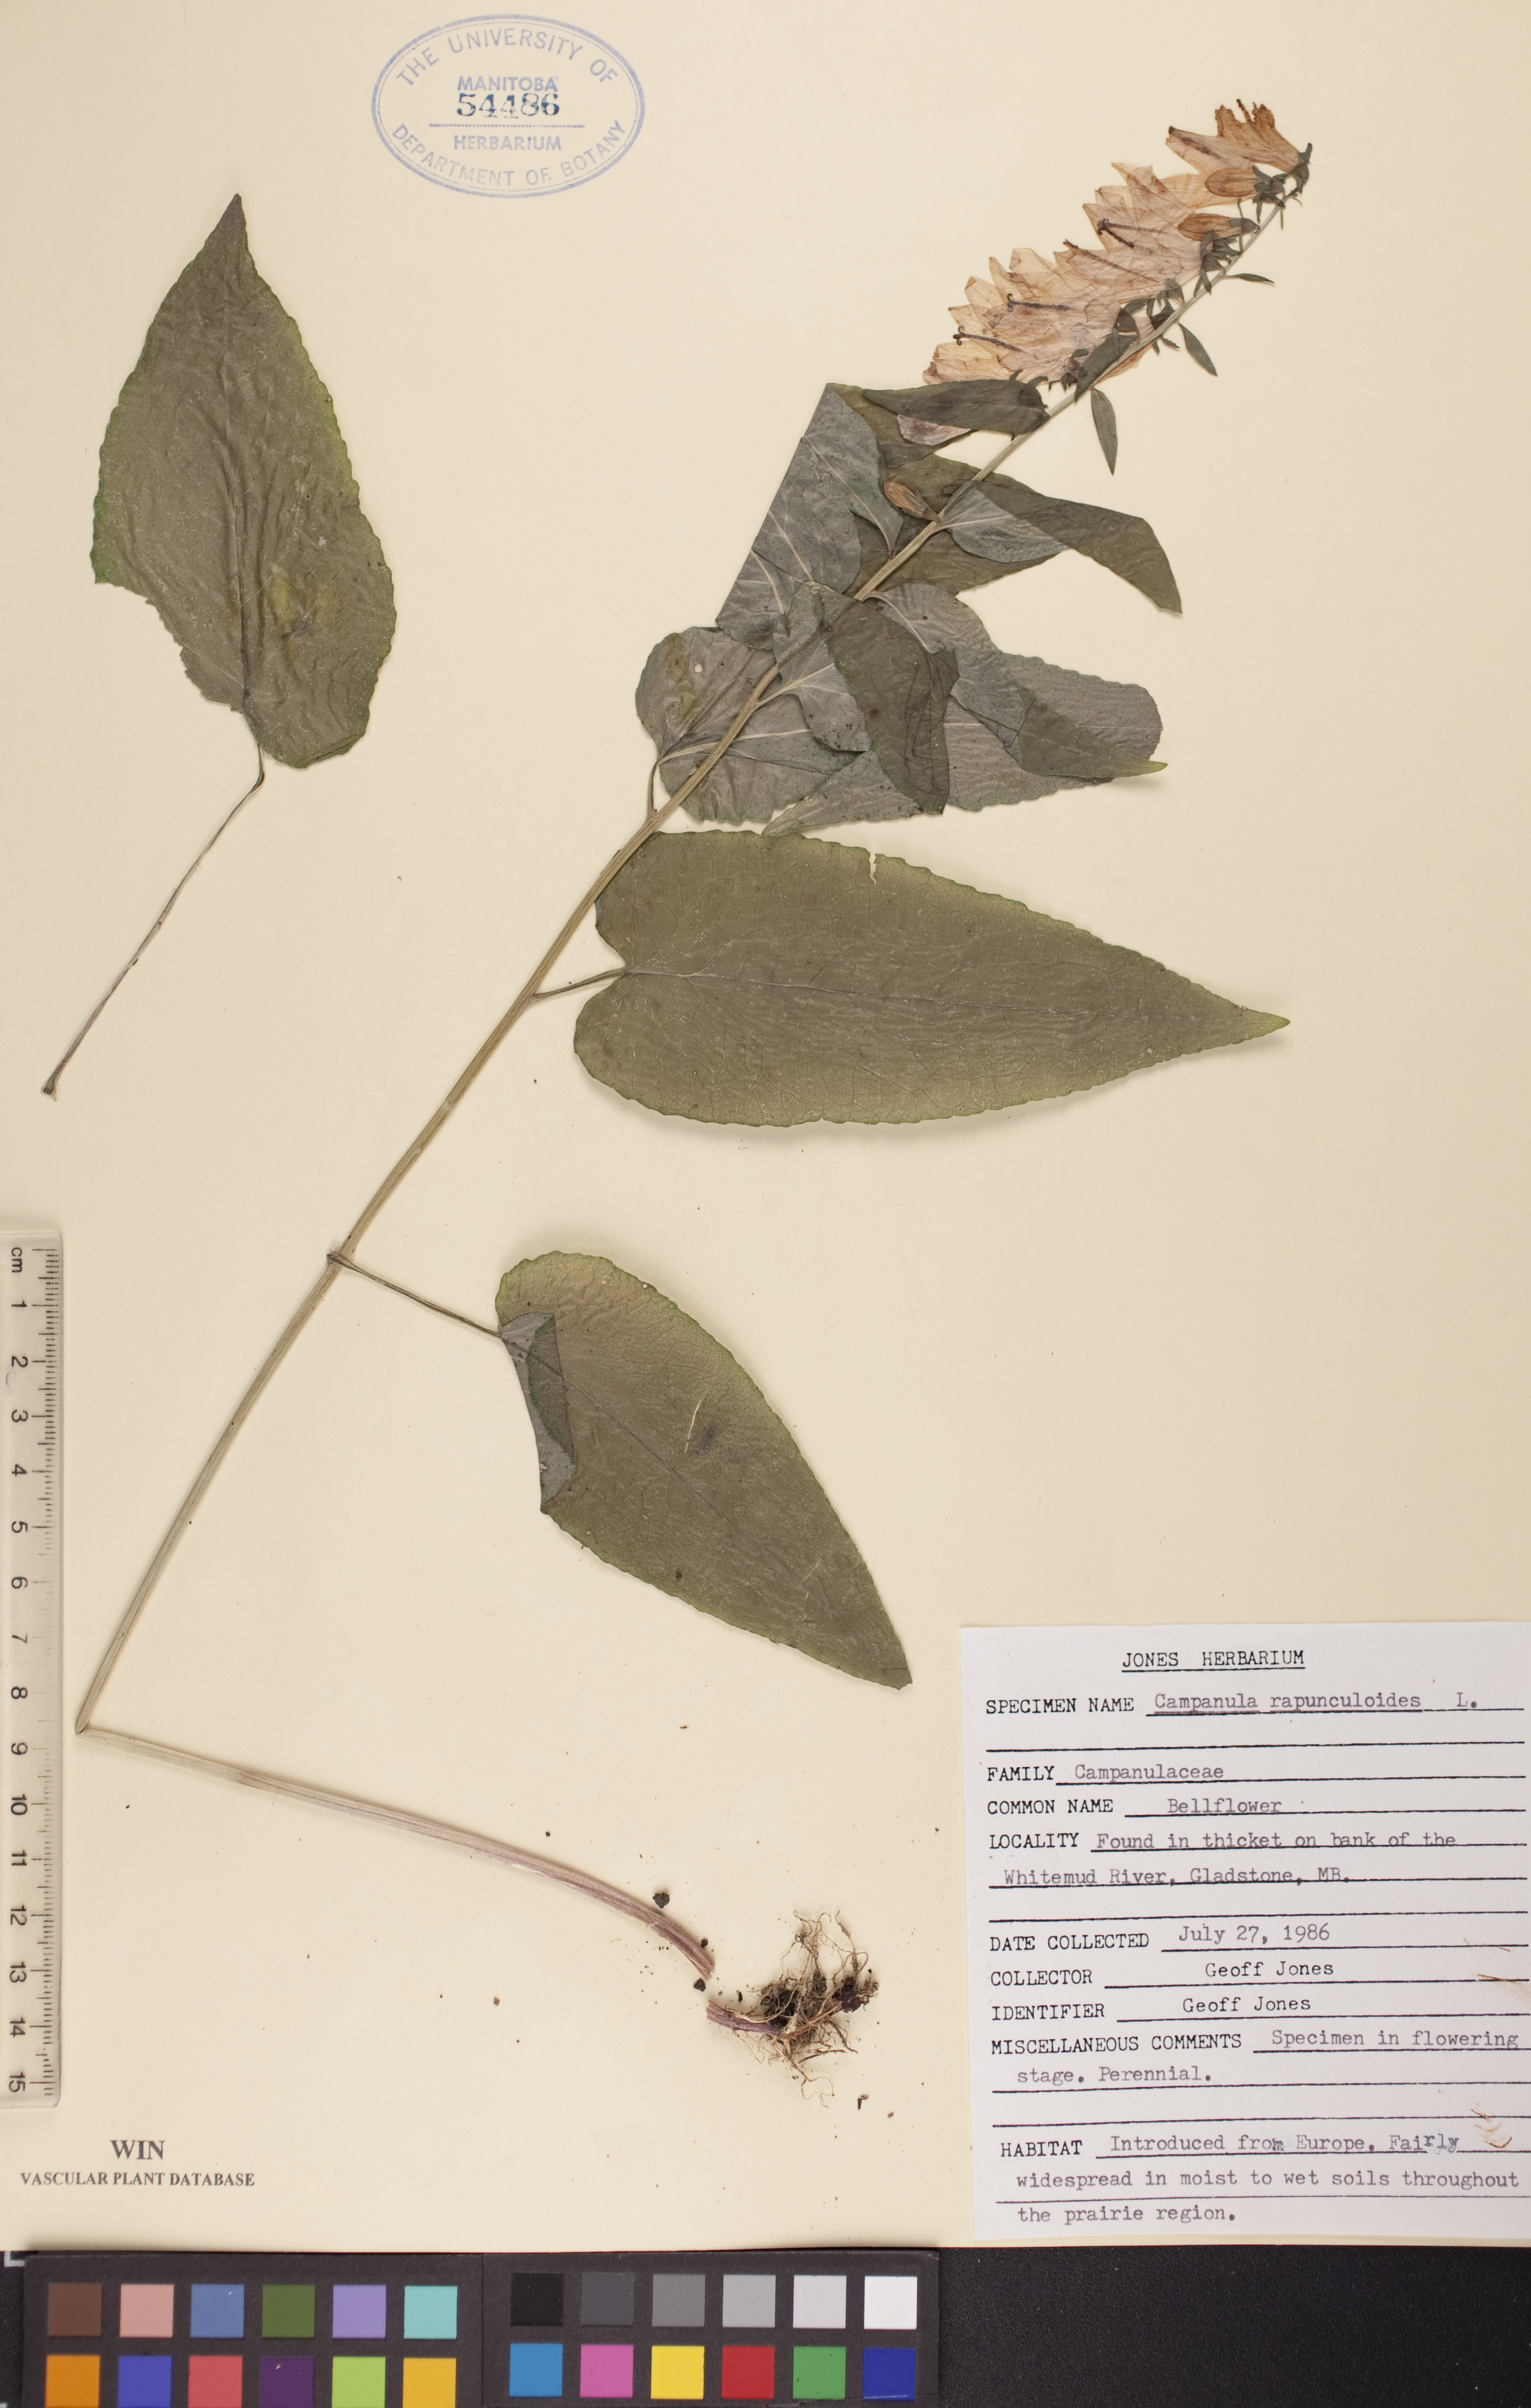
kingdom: Plantae
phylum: Tracheophyta
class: Magnoliopsida
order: Asterales
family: Campanulaceae
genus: Campanula
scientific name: Campanula rapunculoides
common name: Creeping bellflower
